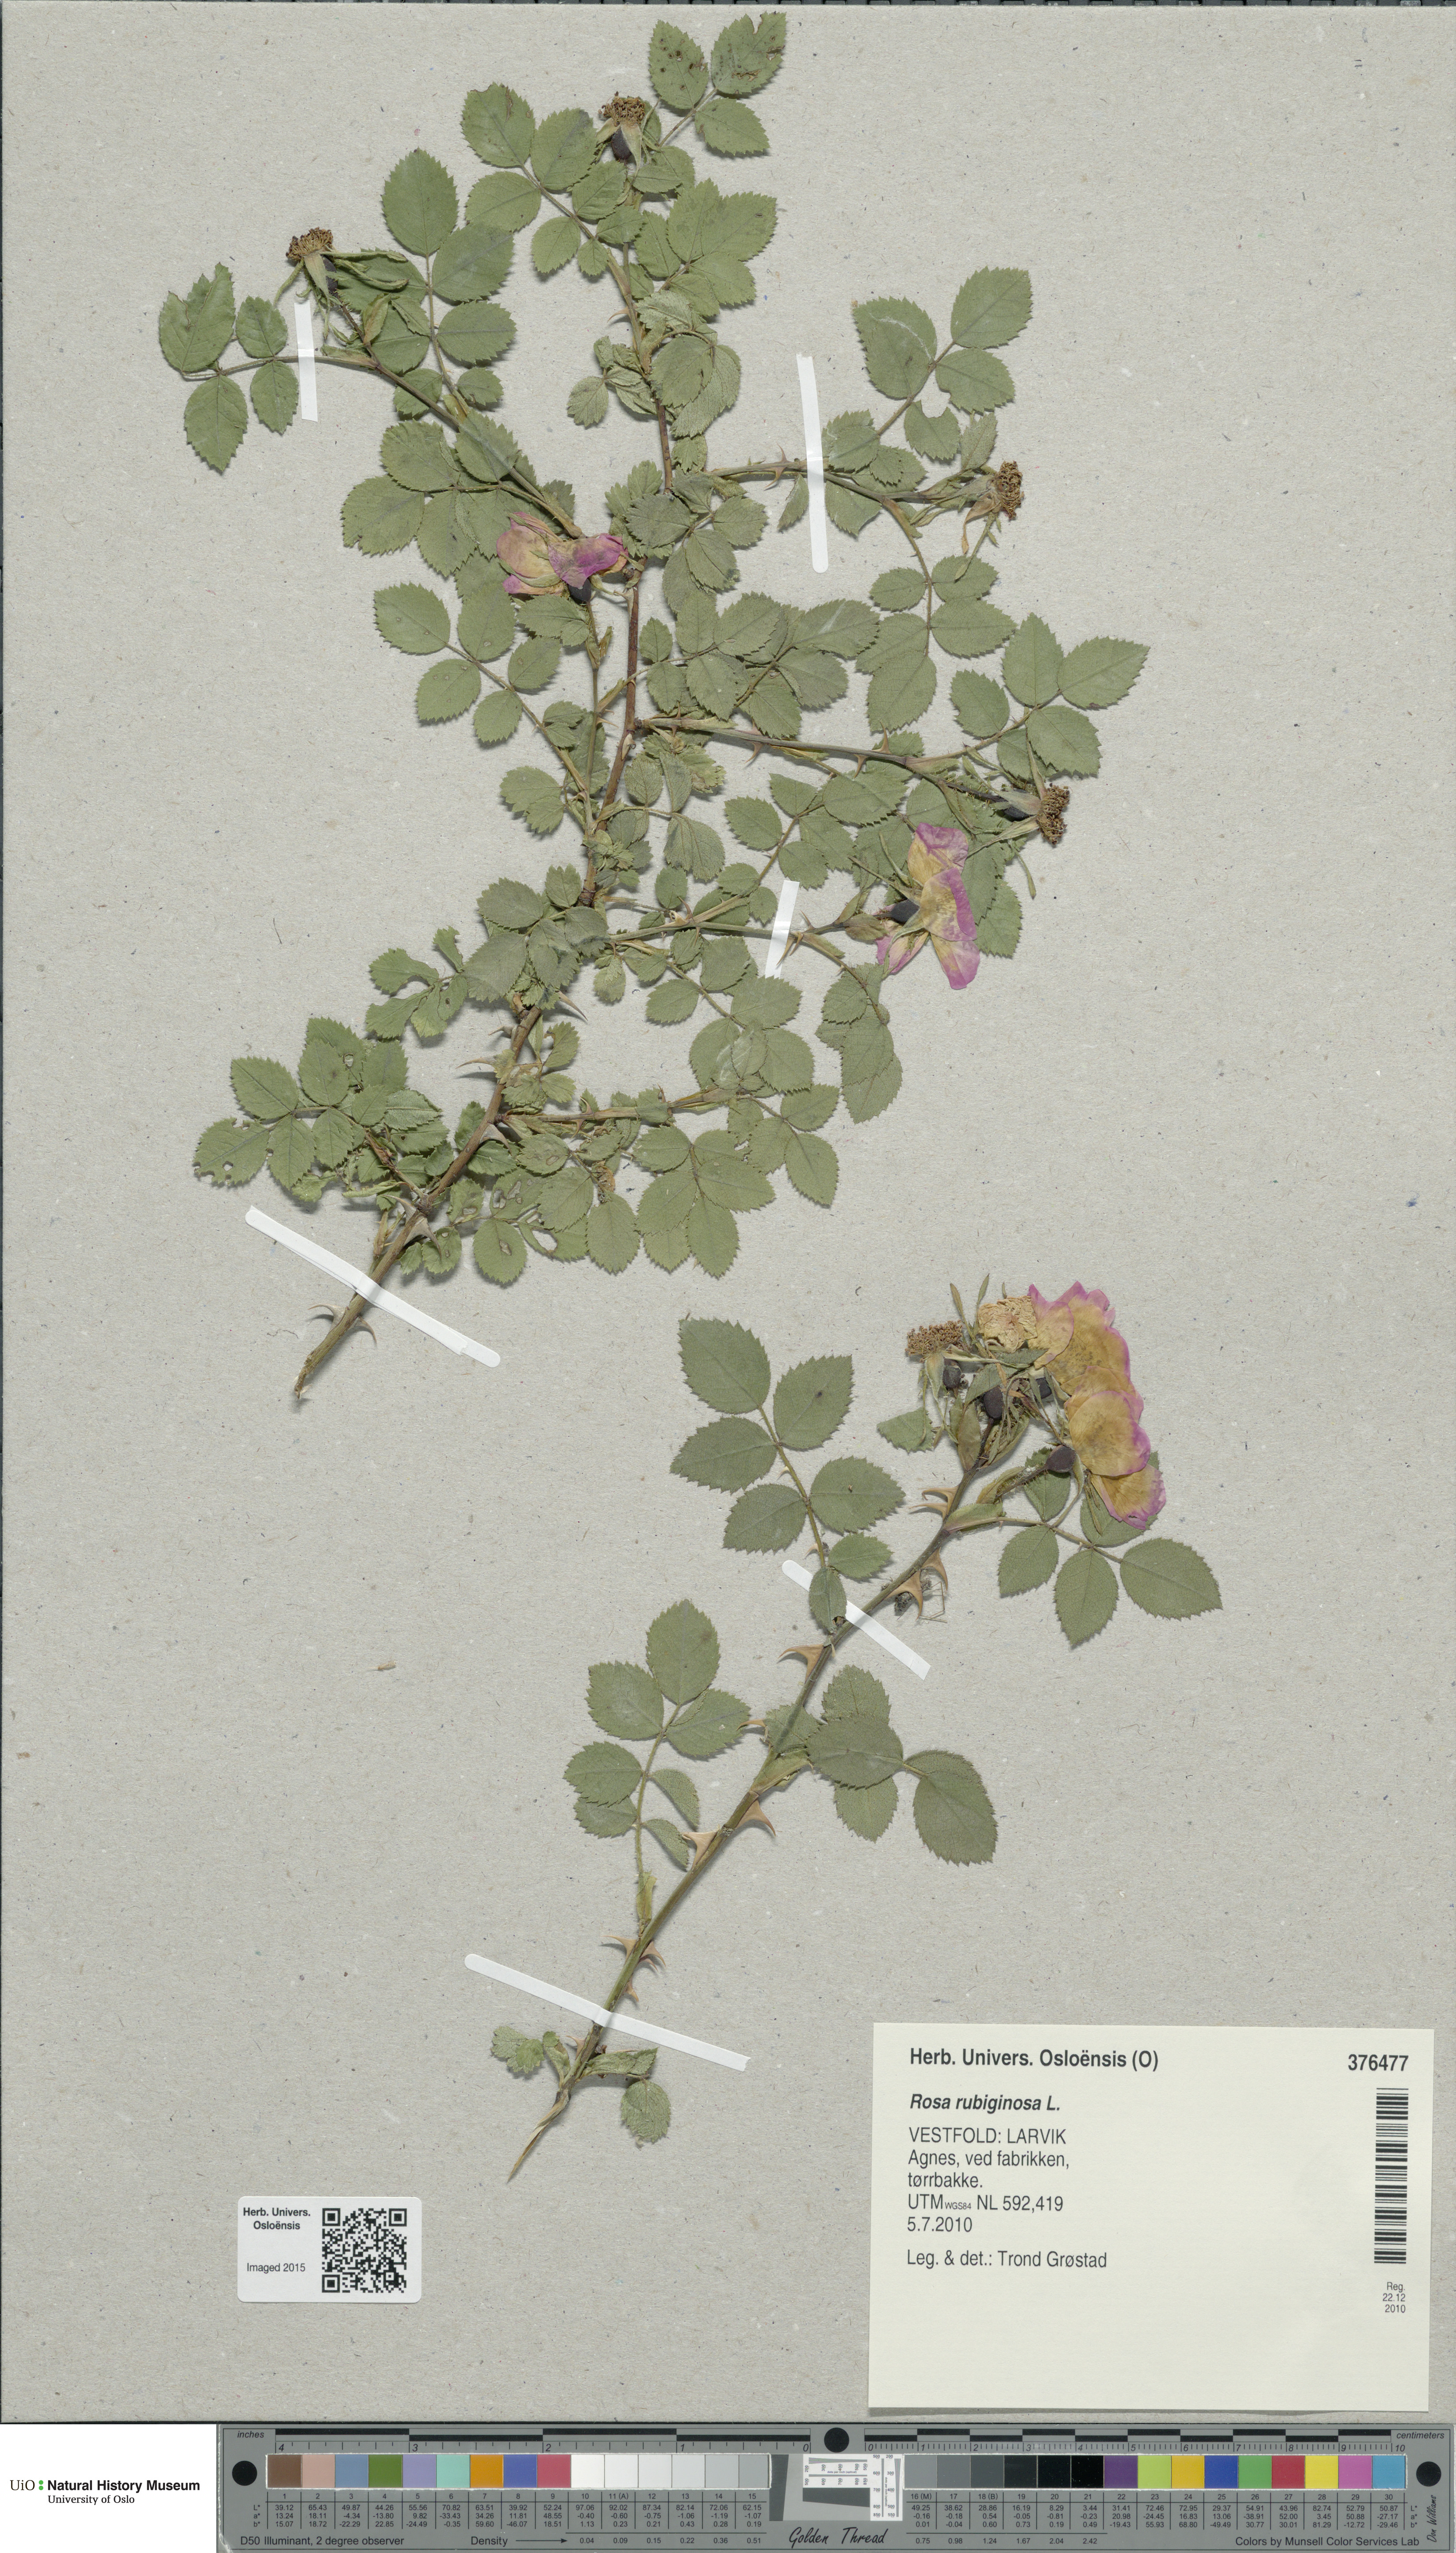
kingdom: Plantae
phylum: Tracheophyta
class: Magnoliopsida
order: Rosales
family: Rosaceae
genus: Rosa
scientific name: Rosa rubiginosa
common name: Sweet-briar
